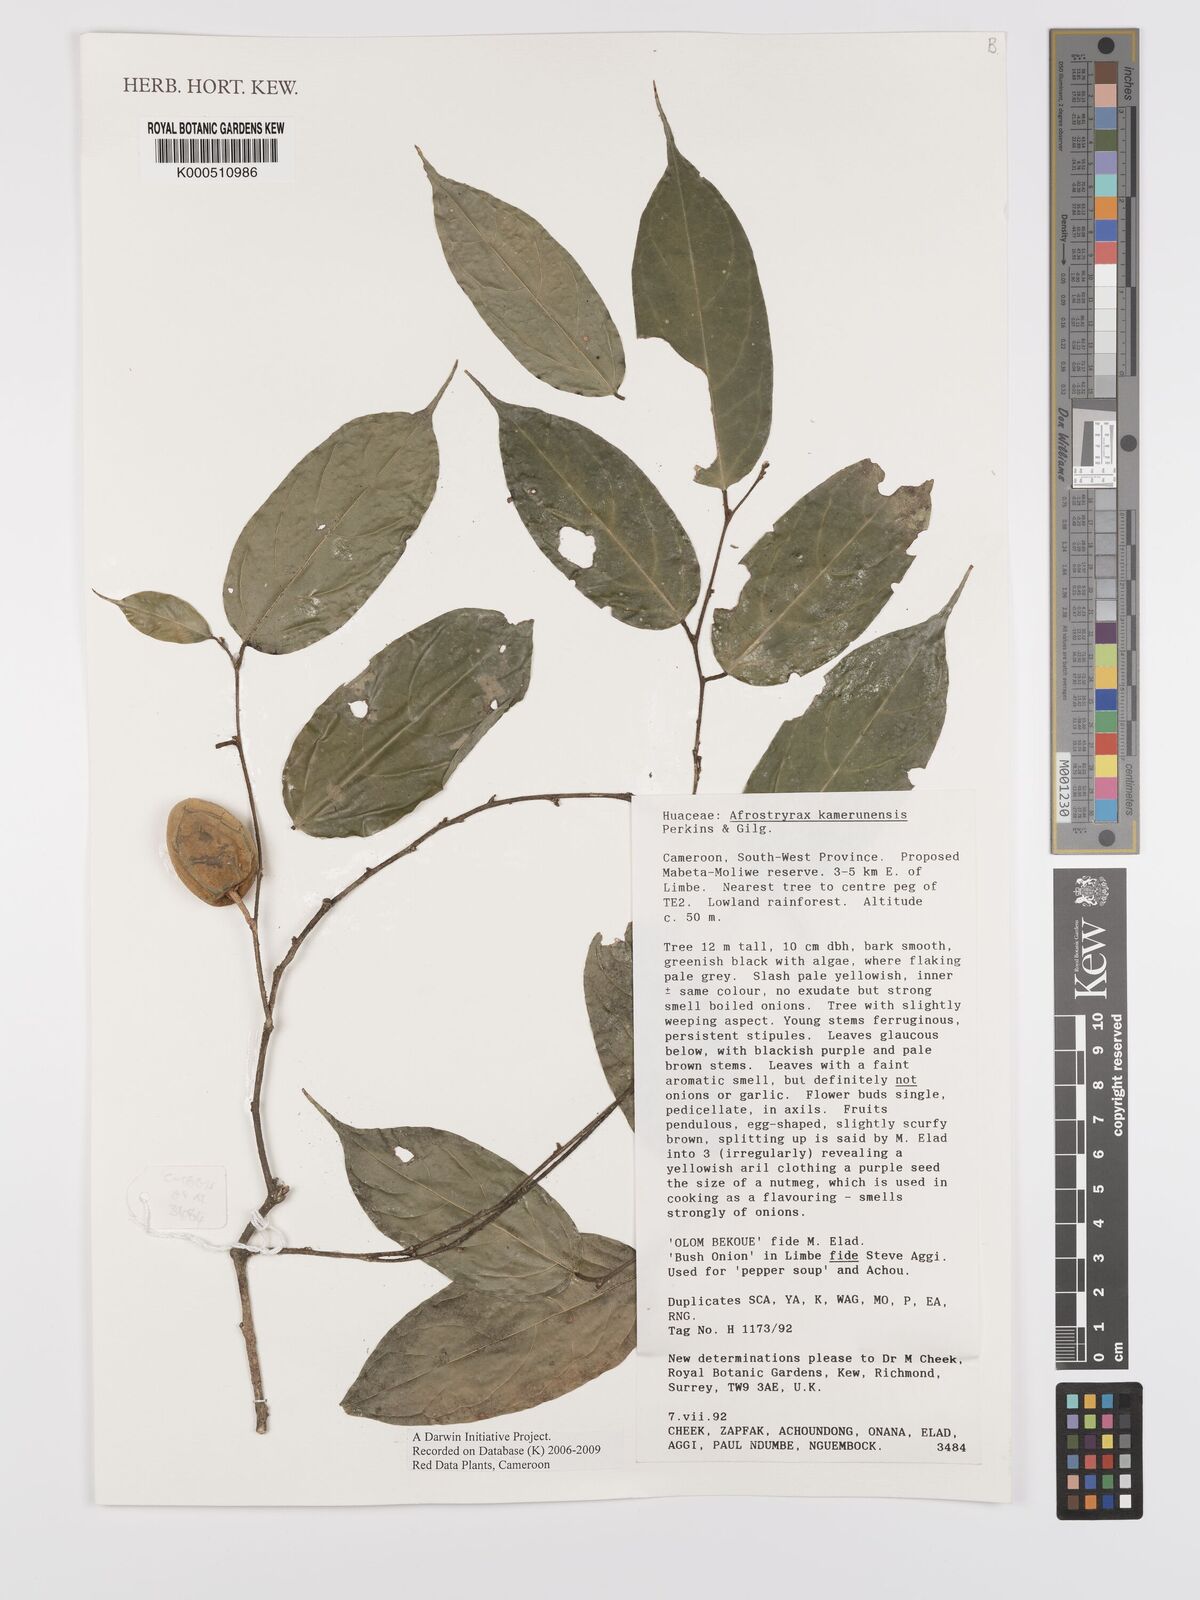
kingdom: Plantae
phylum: Tracheophyta
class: Magnoliopsida
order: Oxalidales
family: Huaceae
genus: Afrostyrax
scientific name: Afrostyrax kamerunensis
